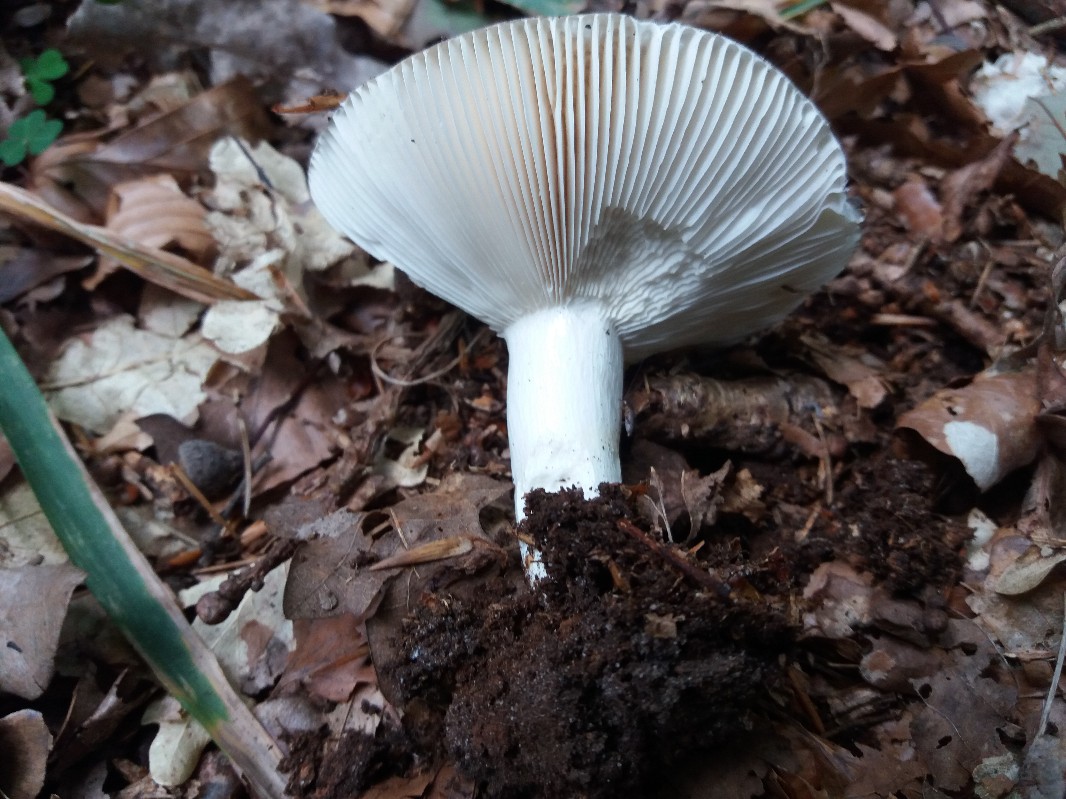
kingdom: Fungi
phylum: Basidiomycota
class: Agaricomycetes
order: Russulales
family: Russulaceae
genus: Russula
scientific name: Russula parazurea
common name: blågrå skørhat
